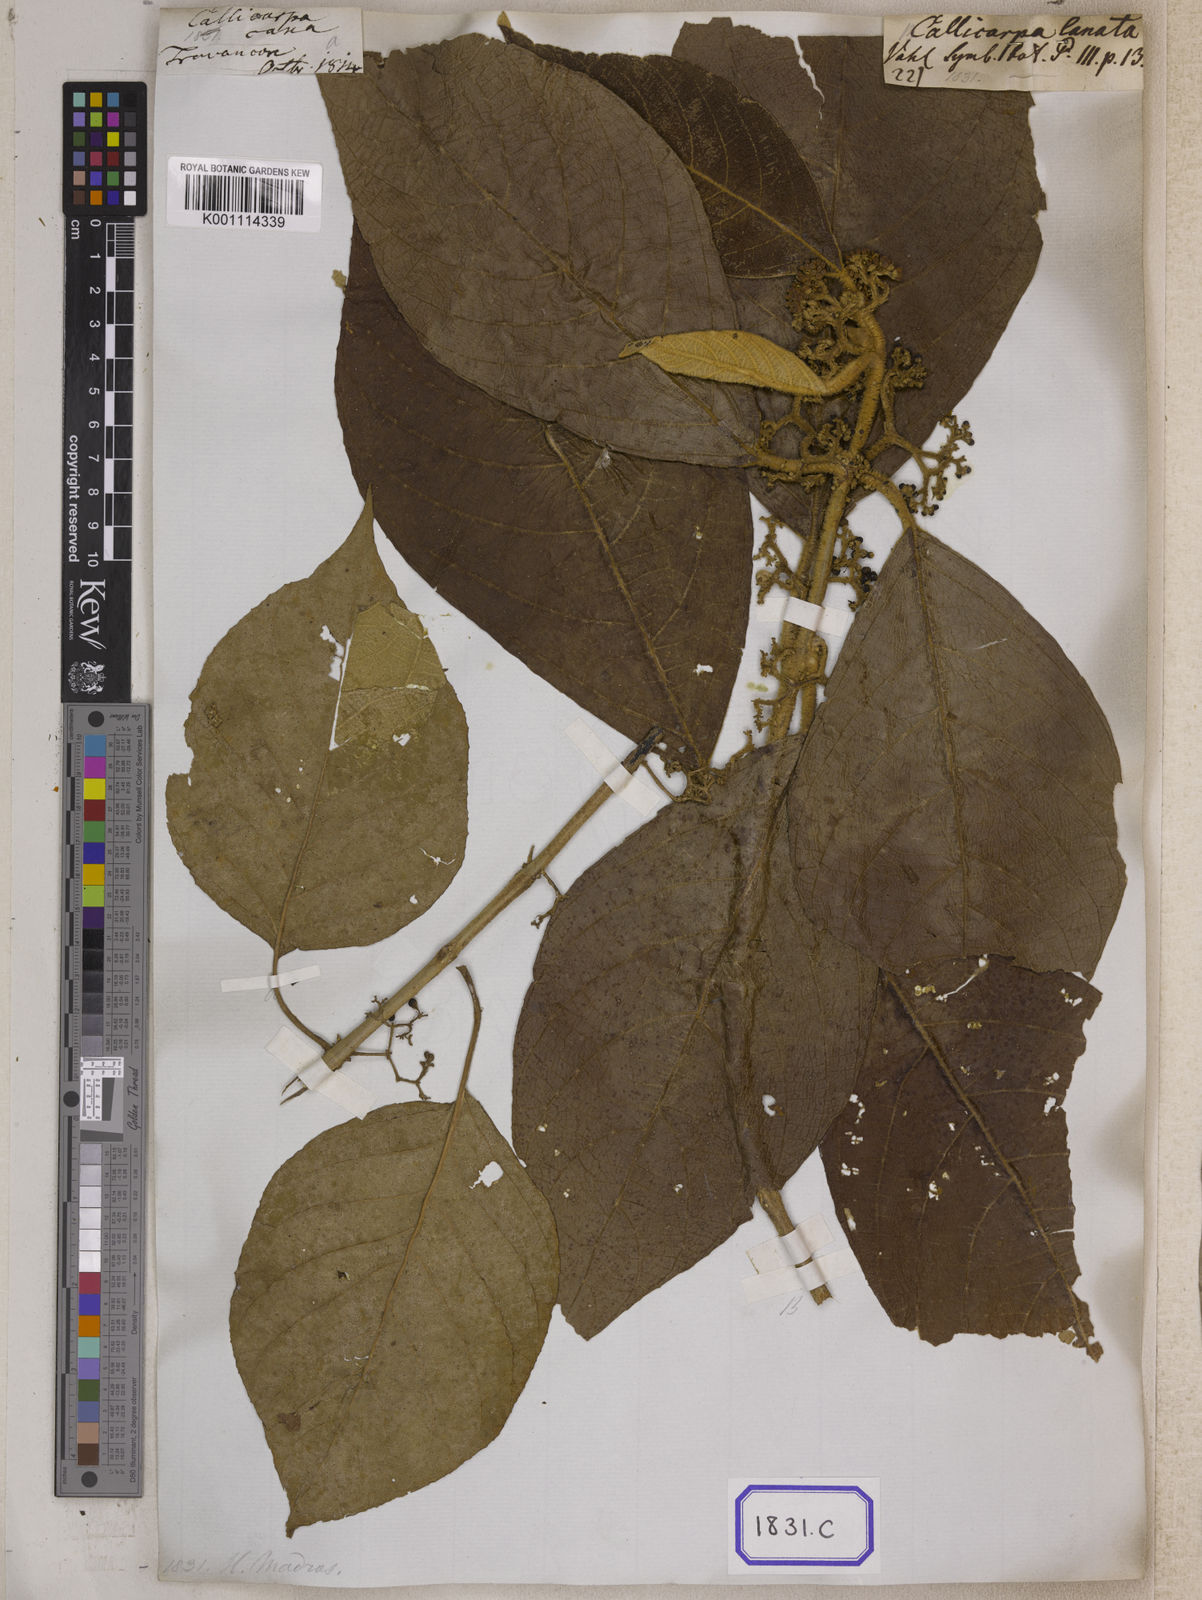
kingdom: Plantae
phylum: Tracheophyta
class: Magnoliopsida
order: Lamiales
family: Lamiaceae
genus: Callicarpa
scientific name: Callicarpa
